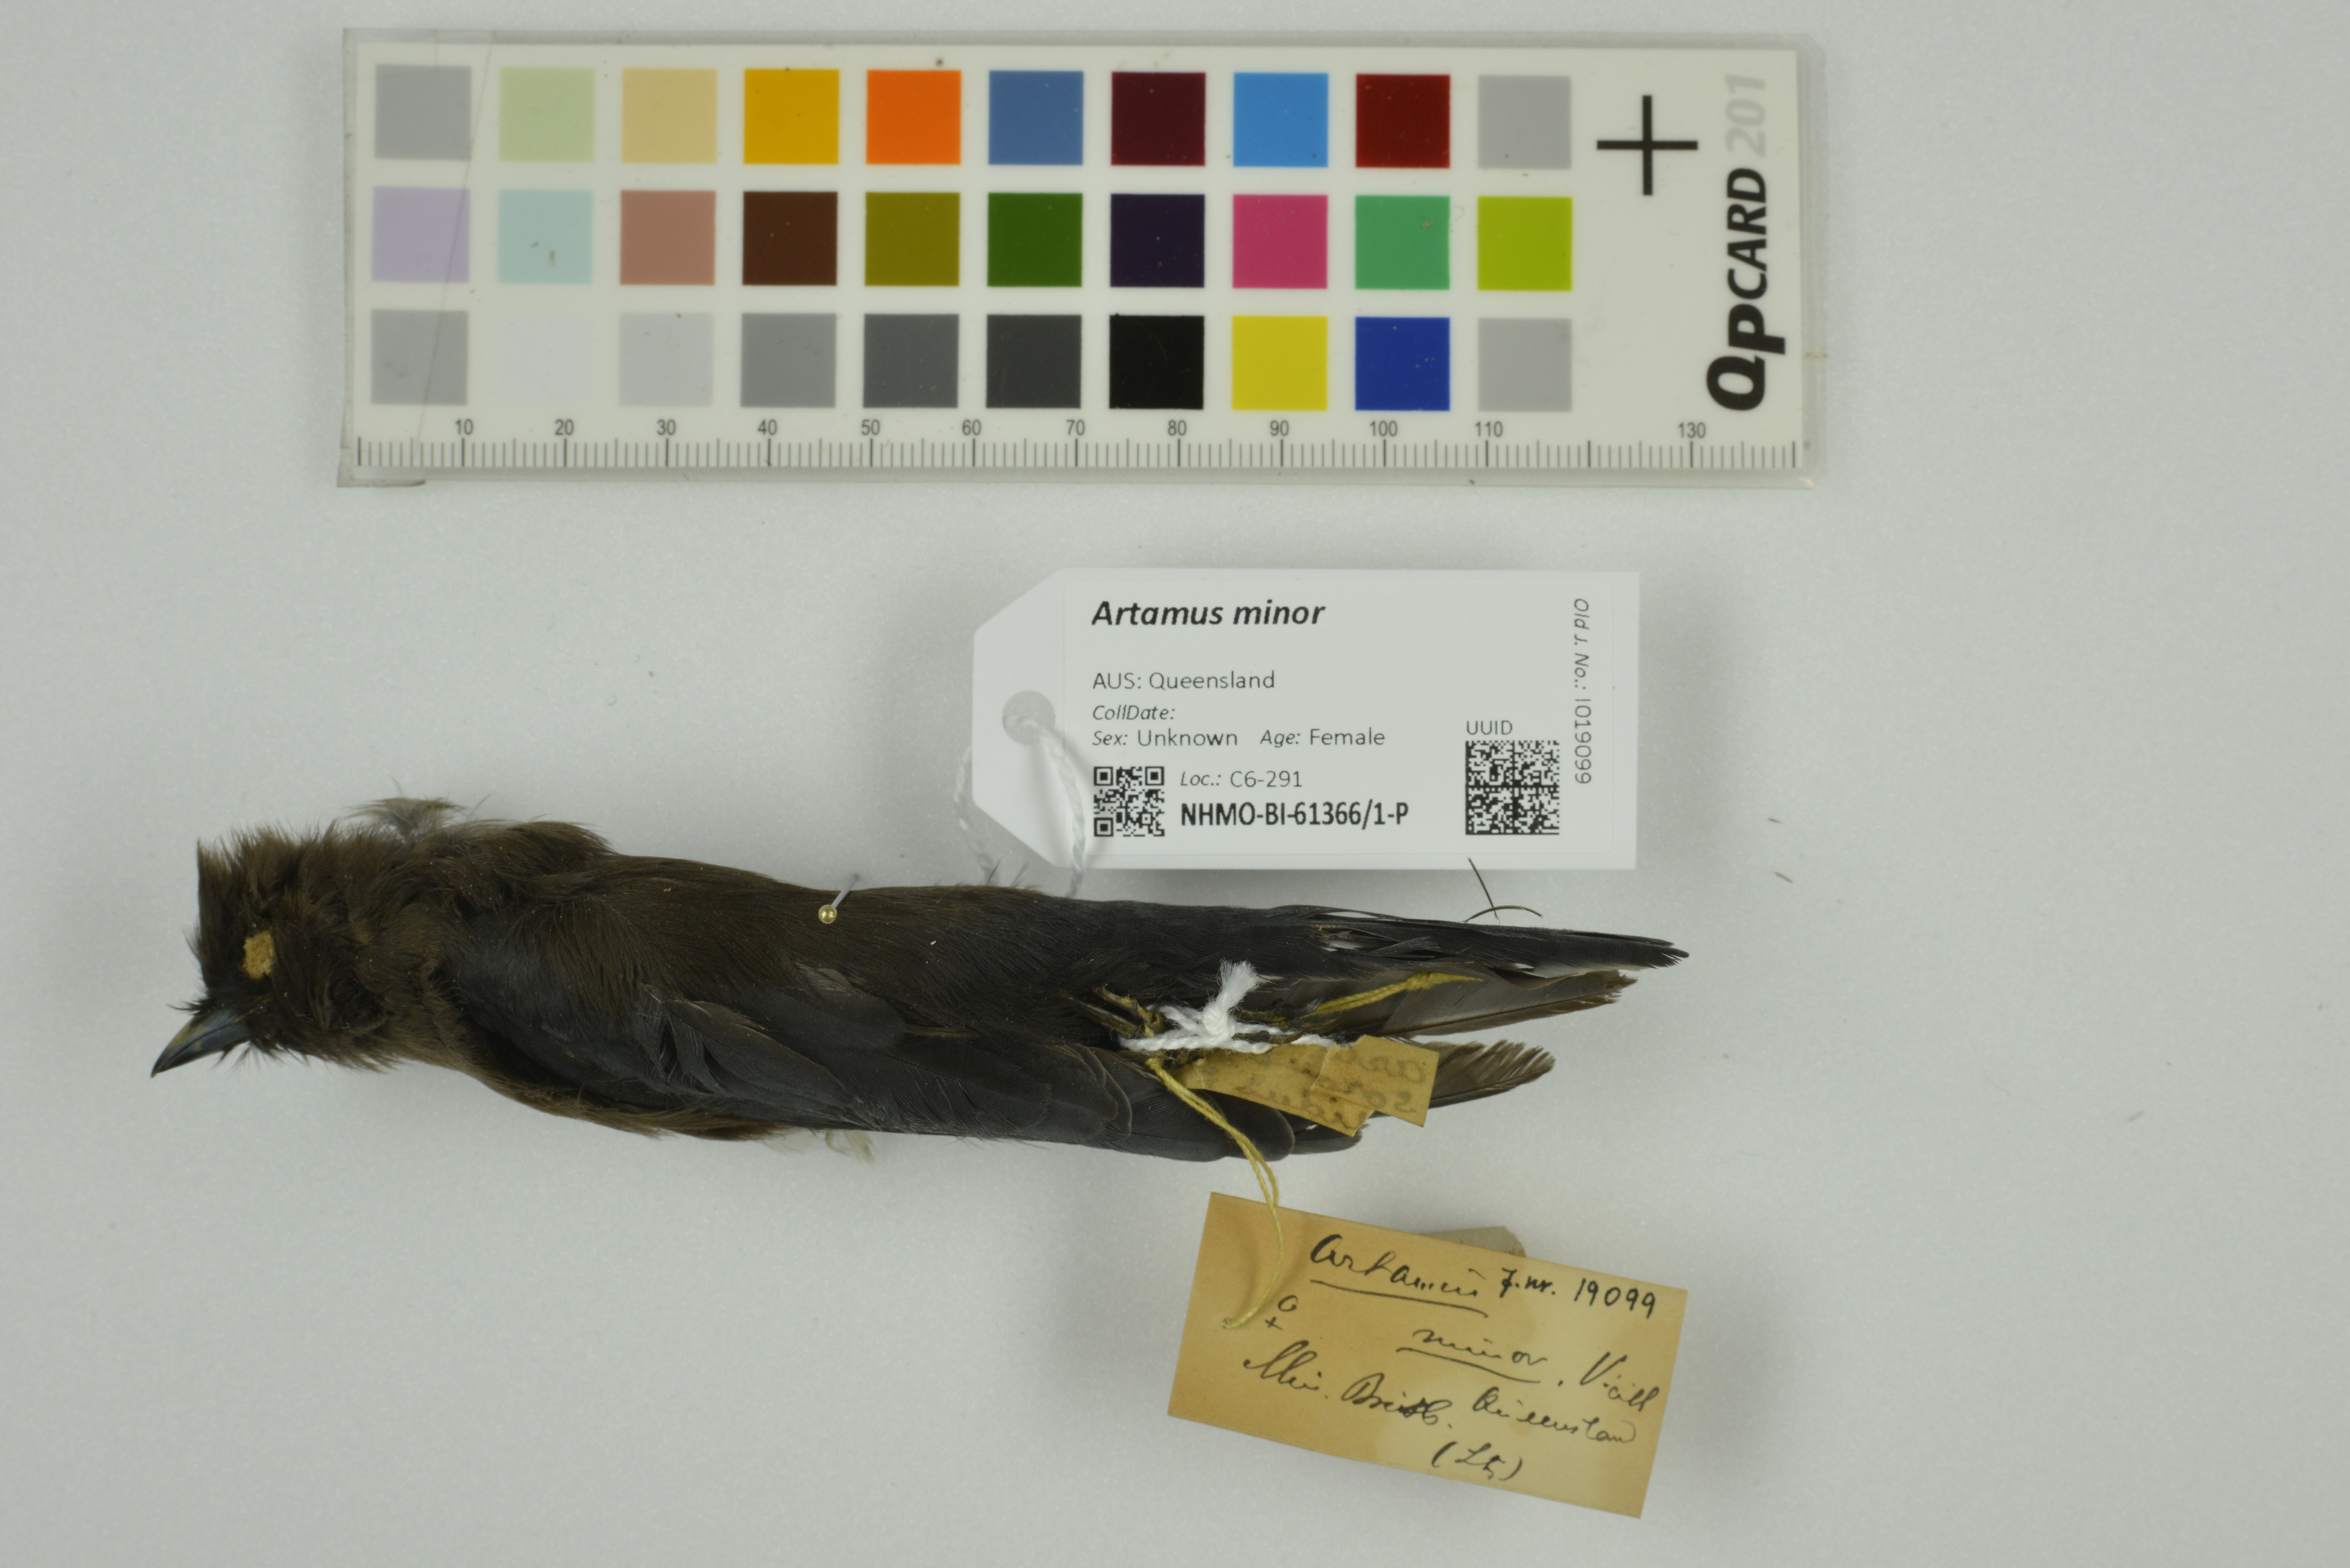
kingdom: Animalia
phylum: Chordata
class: Aves
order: Passeriformes
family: Artamidae
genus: Artamus
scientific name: Artamus minor
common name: Little woodswallow
